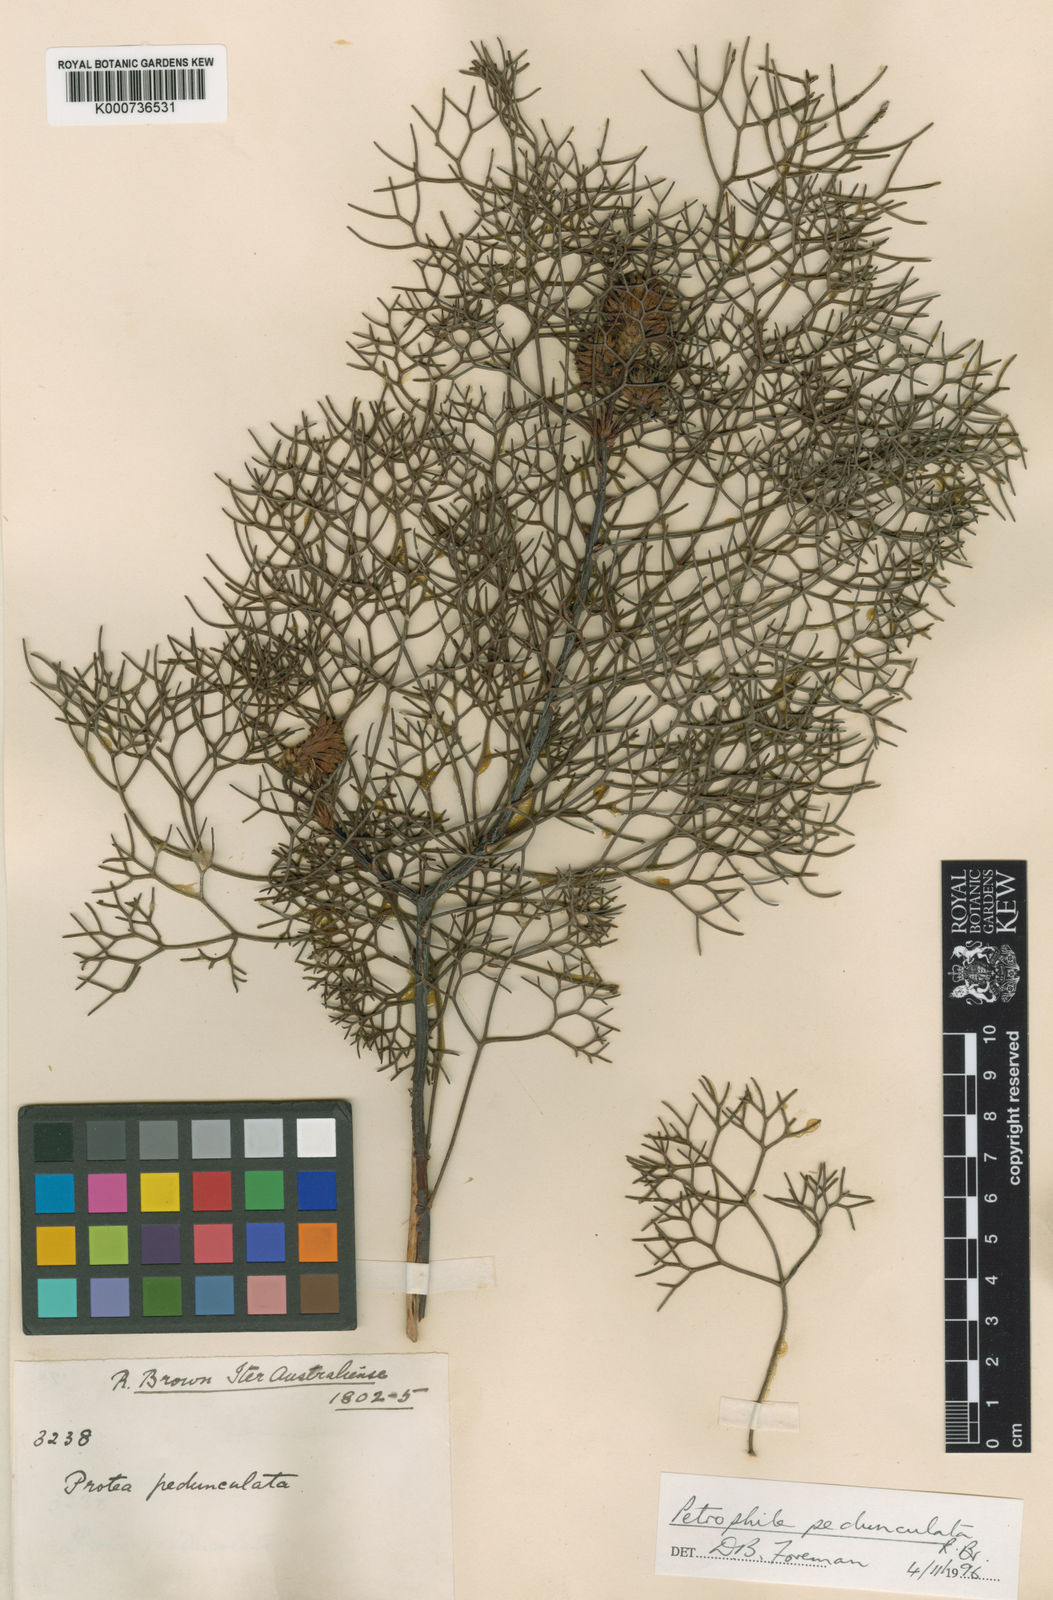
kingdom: Plantae
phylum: Tracheophyta
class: Magnoliopsida
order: Proteales
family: Proteaceae
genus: Petrophile
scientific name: Petrophile
